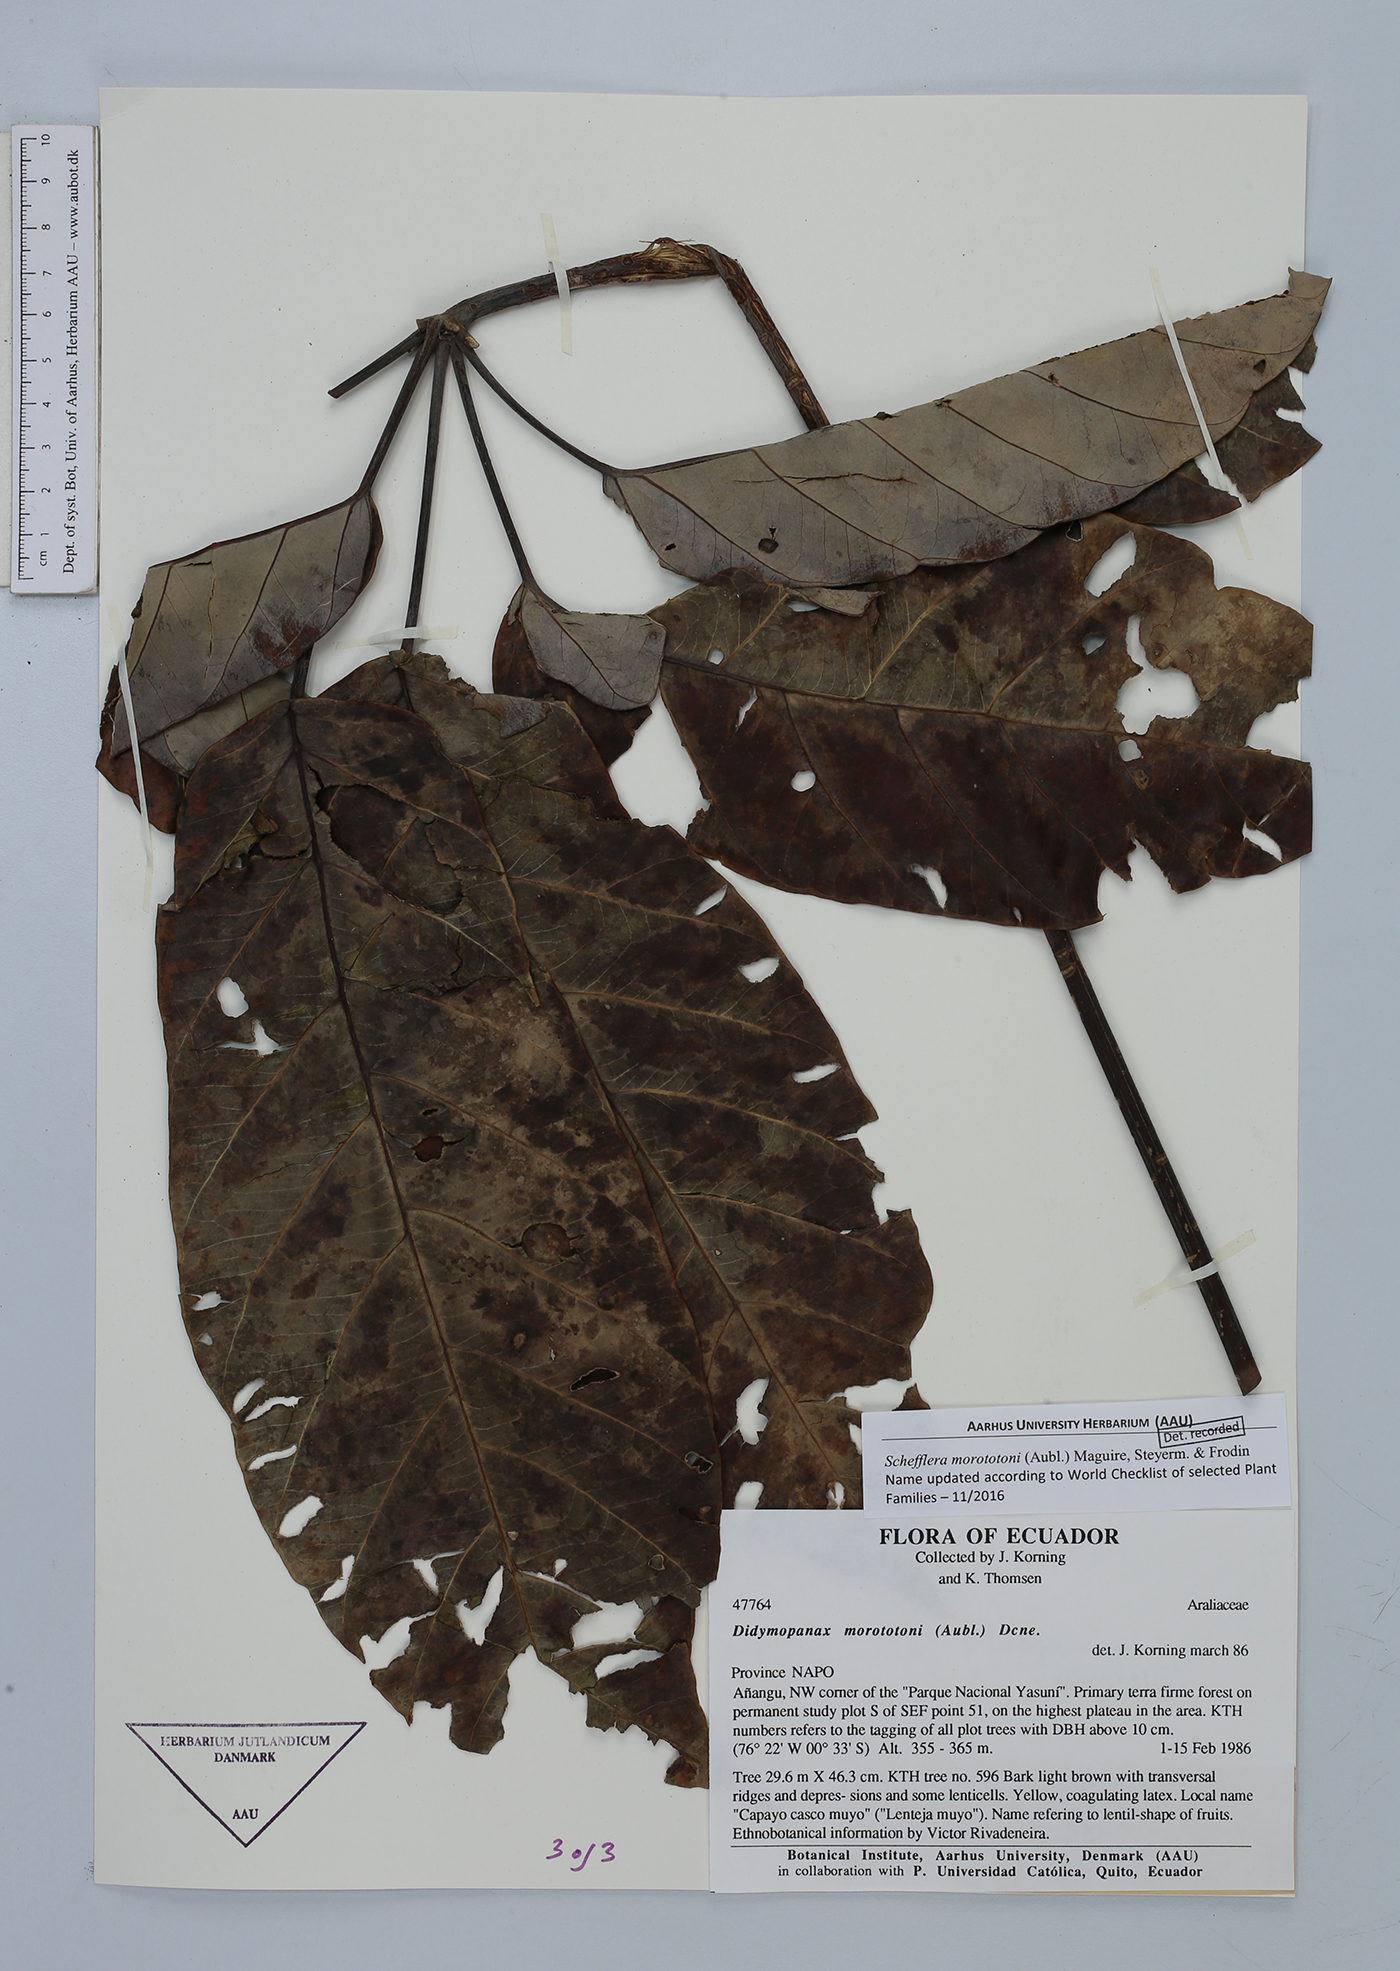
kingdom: Plantae
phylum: Tracheophyta
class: Magnoliopsida
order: Apiales
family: Araliaceae
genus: Didymopanax
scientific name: Didymopanax morototoni
